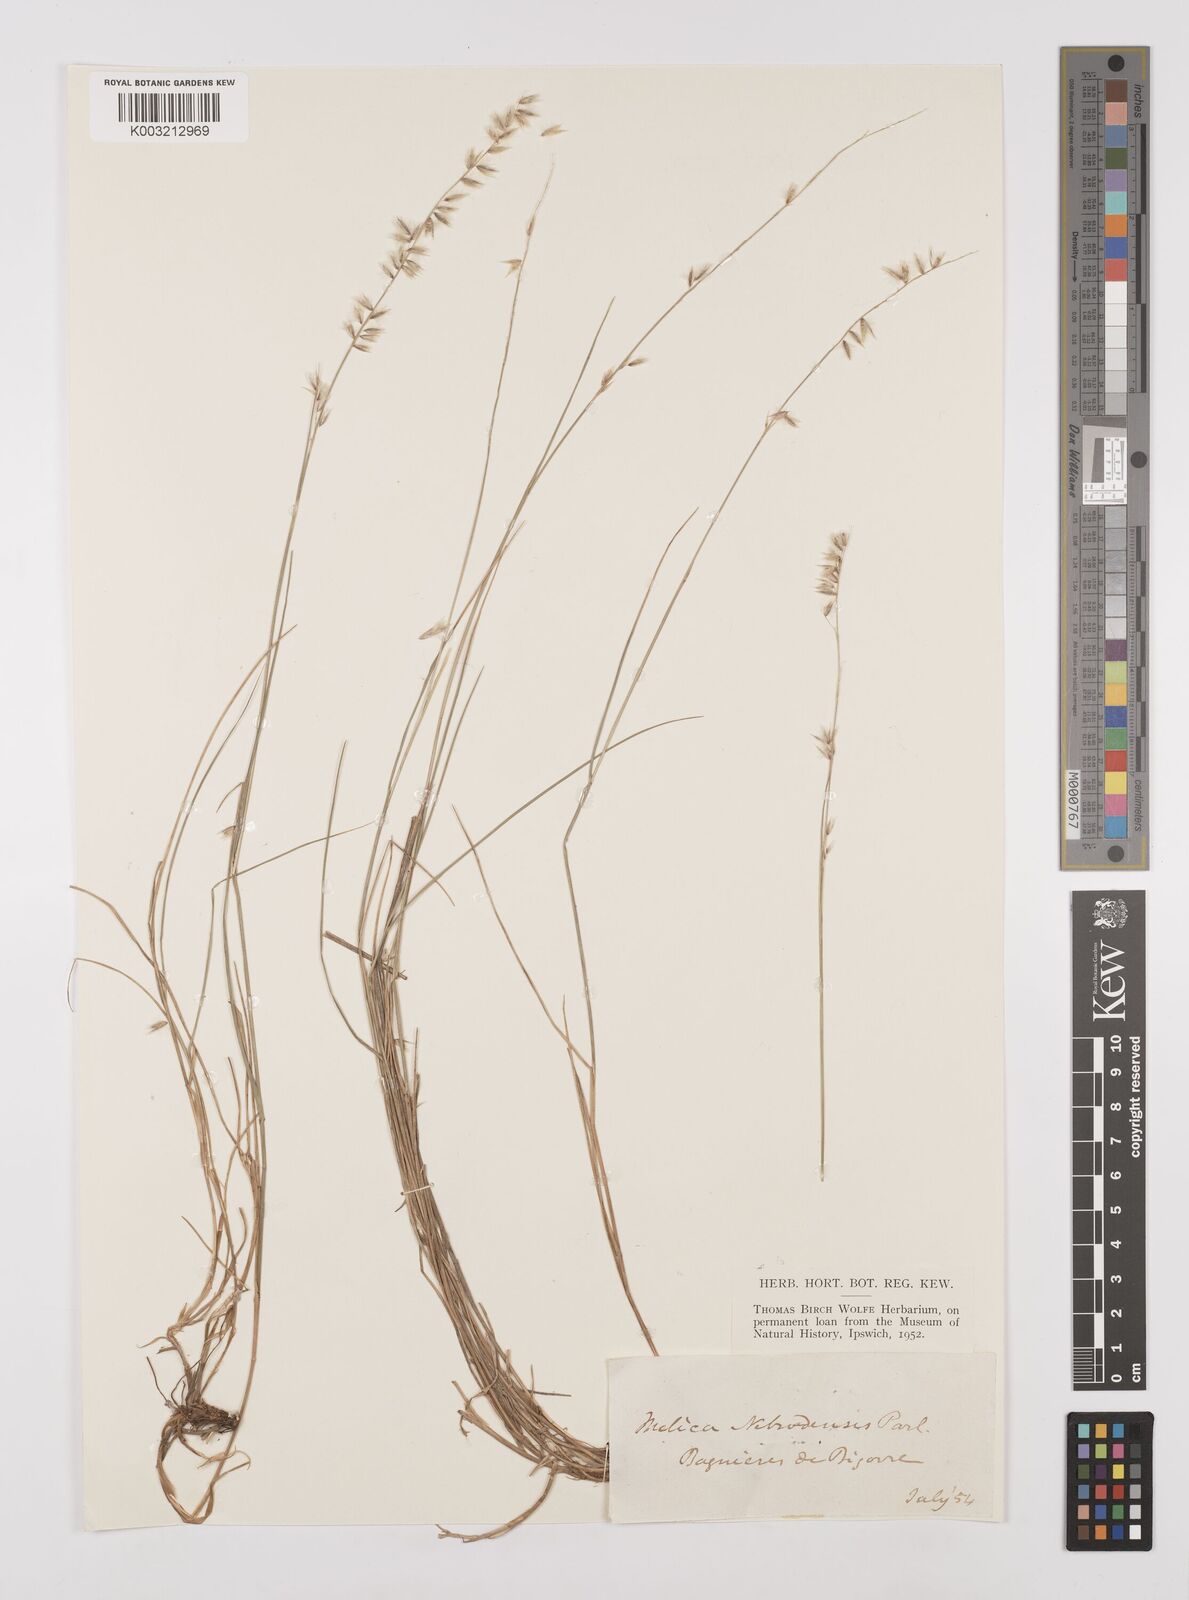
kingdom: Plantae
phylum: Tracheophyta
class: Liliopsida
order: Poales
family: Poaceae
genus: Melica
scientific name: Melica amethystina
